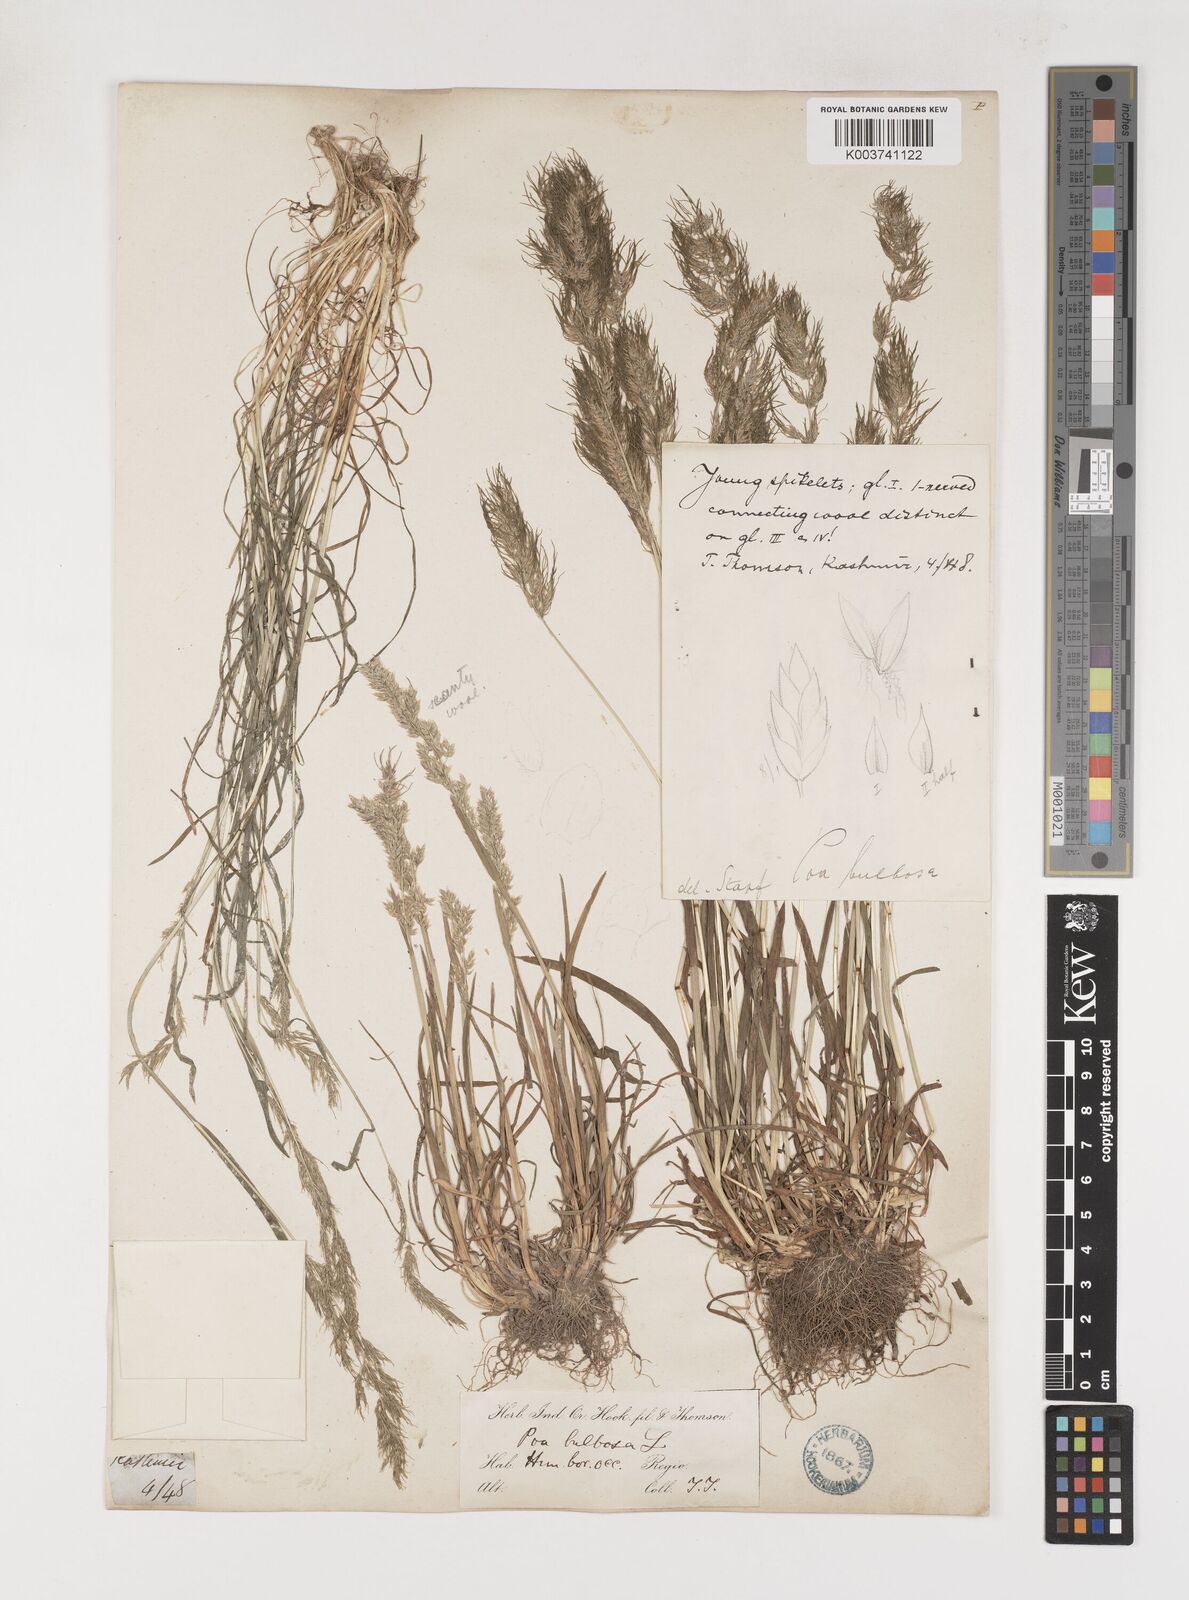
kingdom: Plantae
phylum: Tracheophyta
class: Liliopsida
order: Poales
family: Poaceae
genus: Poa
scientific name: Poa bulbosa
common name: Bulbous bluegrass
